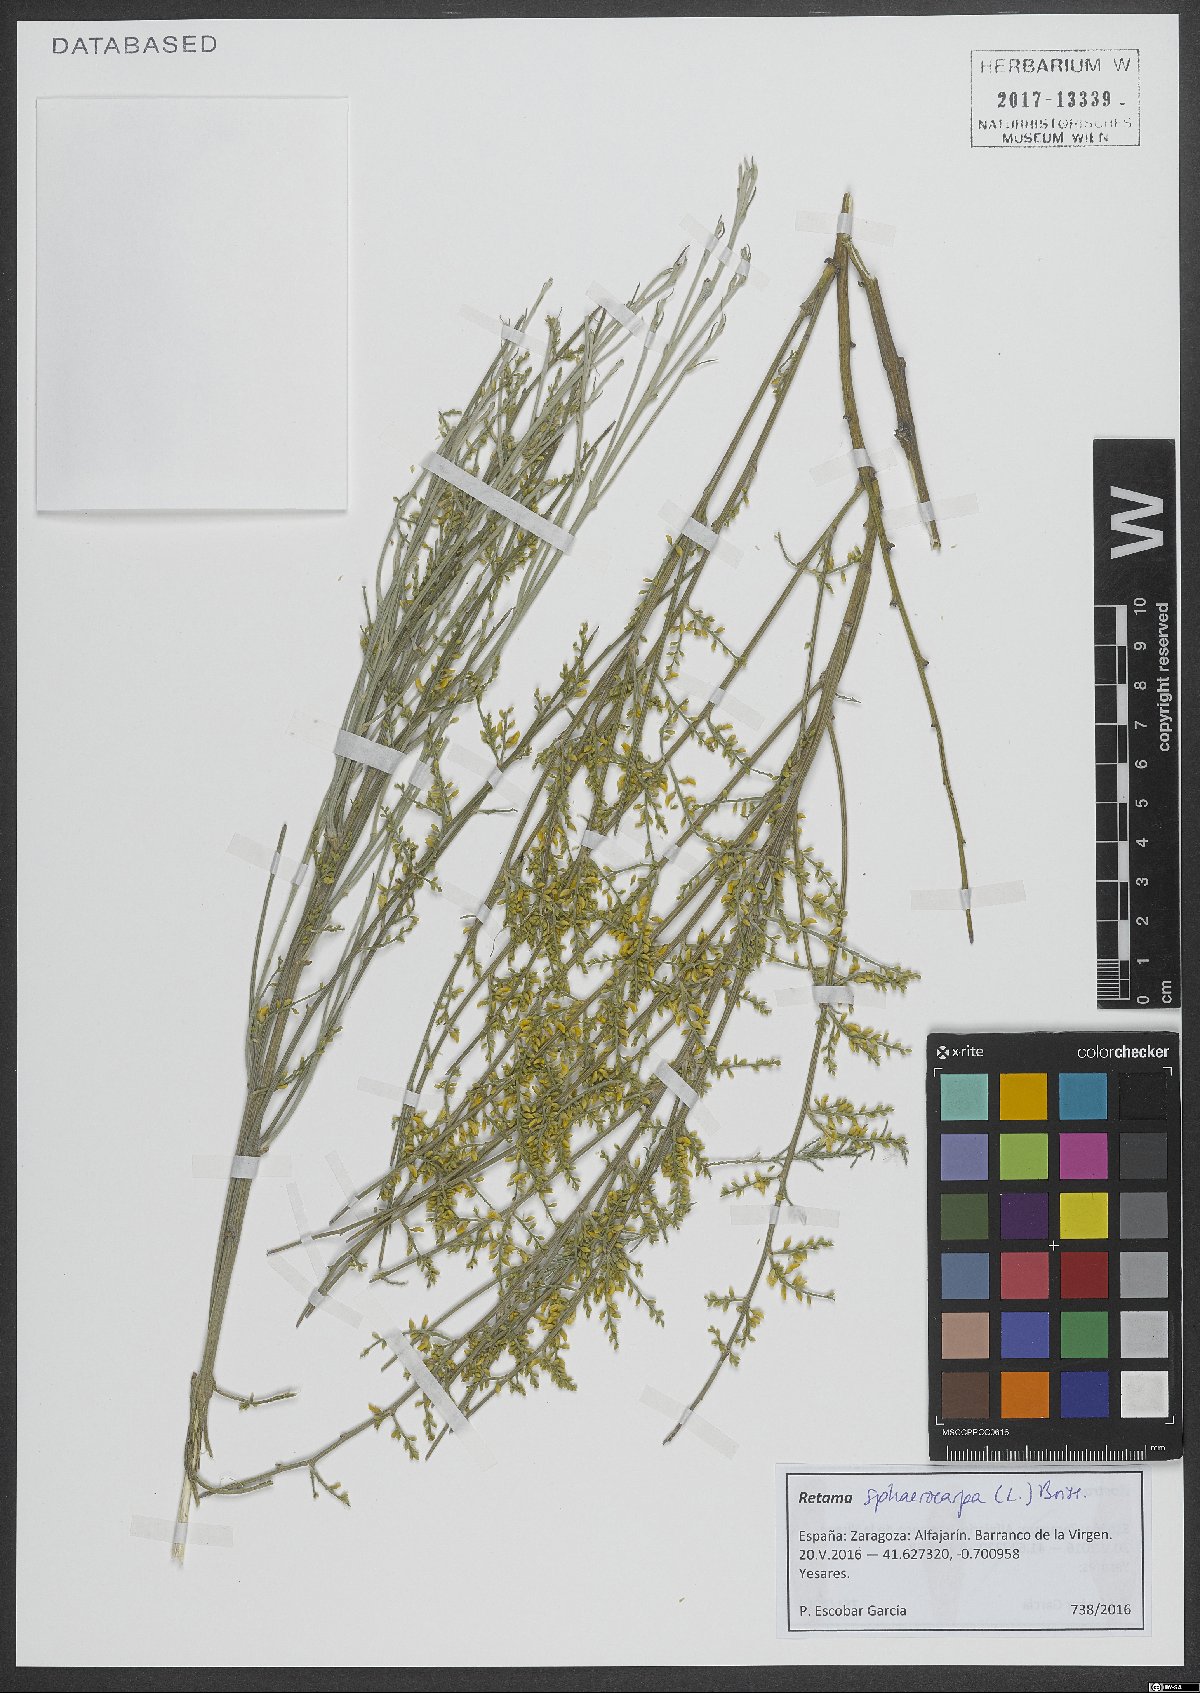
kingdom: Plantae
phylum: Tracheophyta
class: Magnoliopsida
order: Fabales
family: Fabaceae
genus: Retama
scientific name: Retama sphaerocarpa
